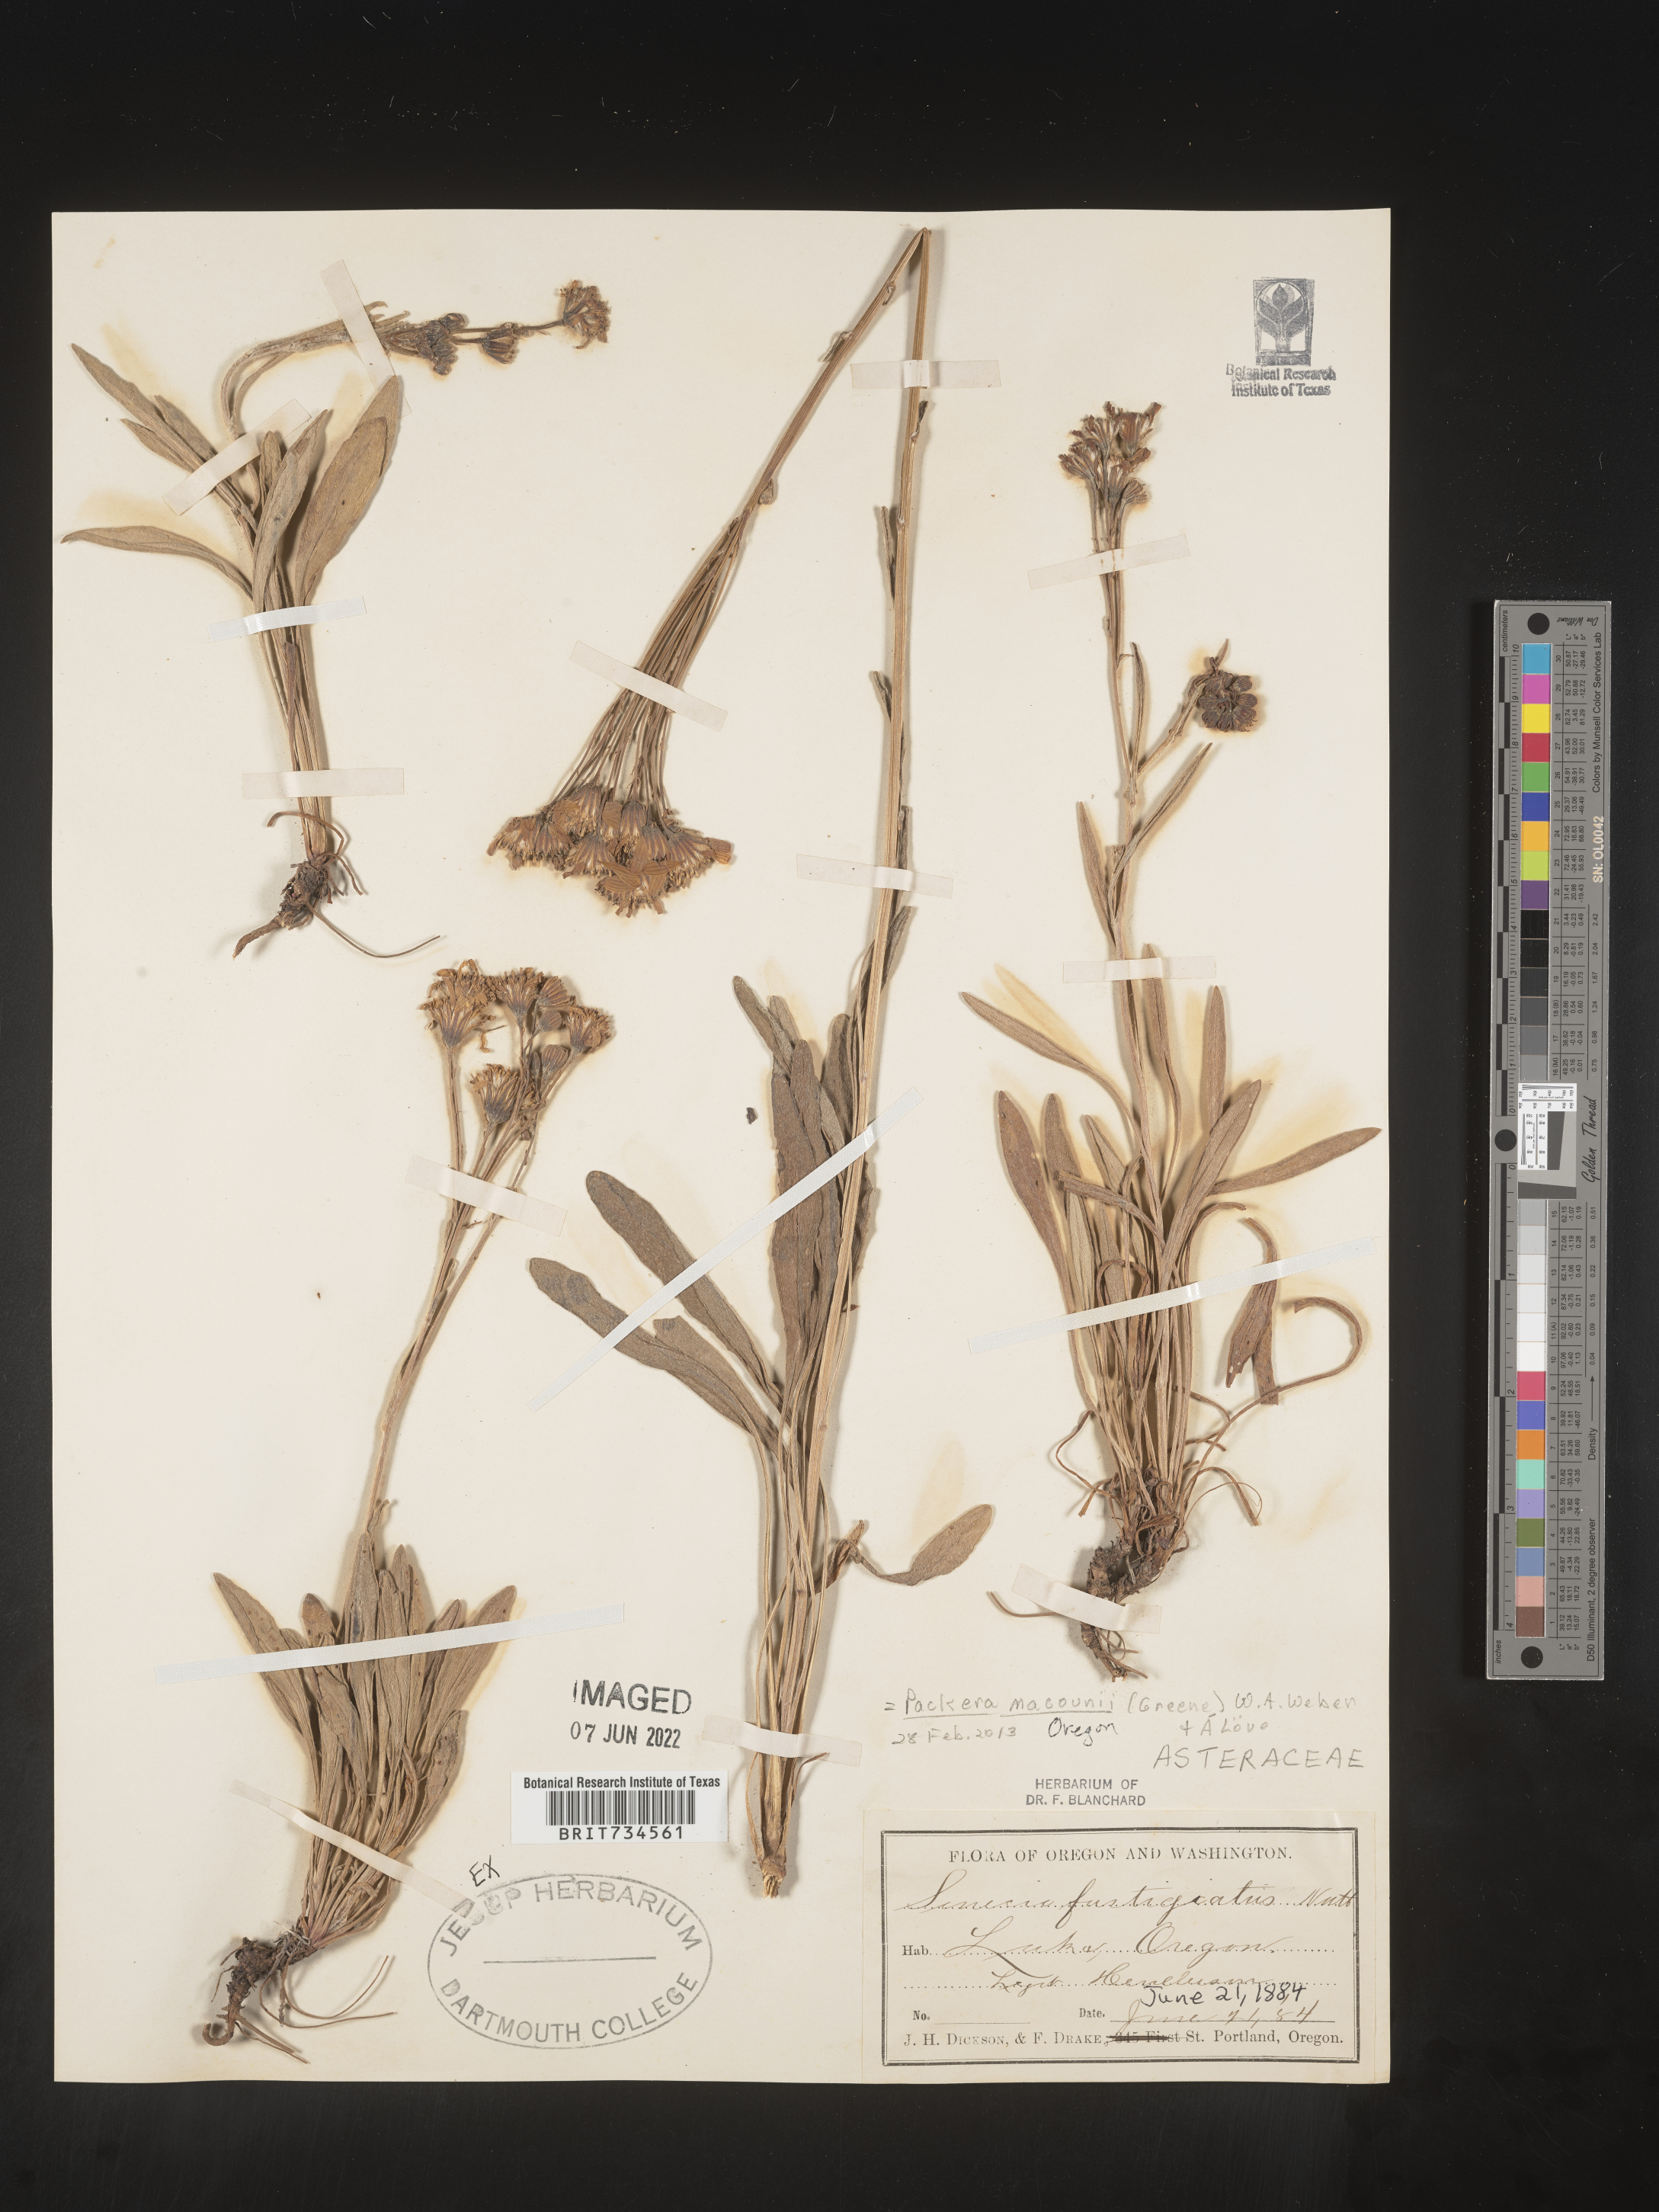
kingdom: Plantae
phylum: Tracheophyta
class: Magnoliopsida
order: Asterales
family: Asteraceae
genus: Packera
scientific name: Packera macounii
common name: Macoun's groundsel
